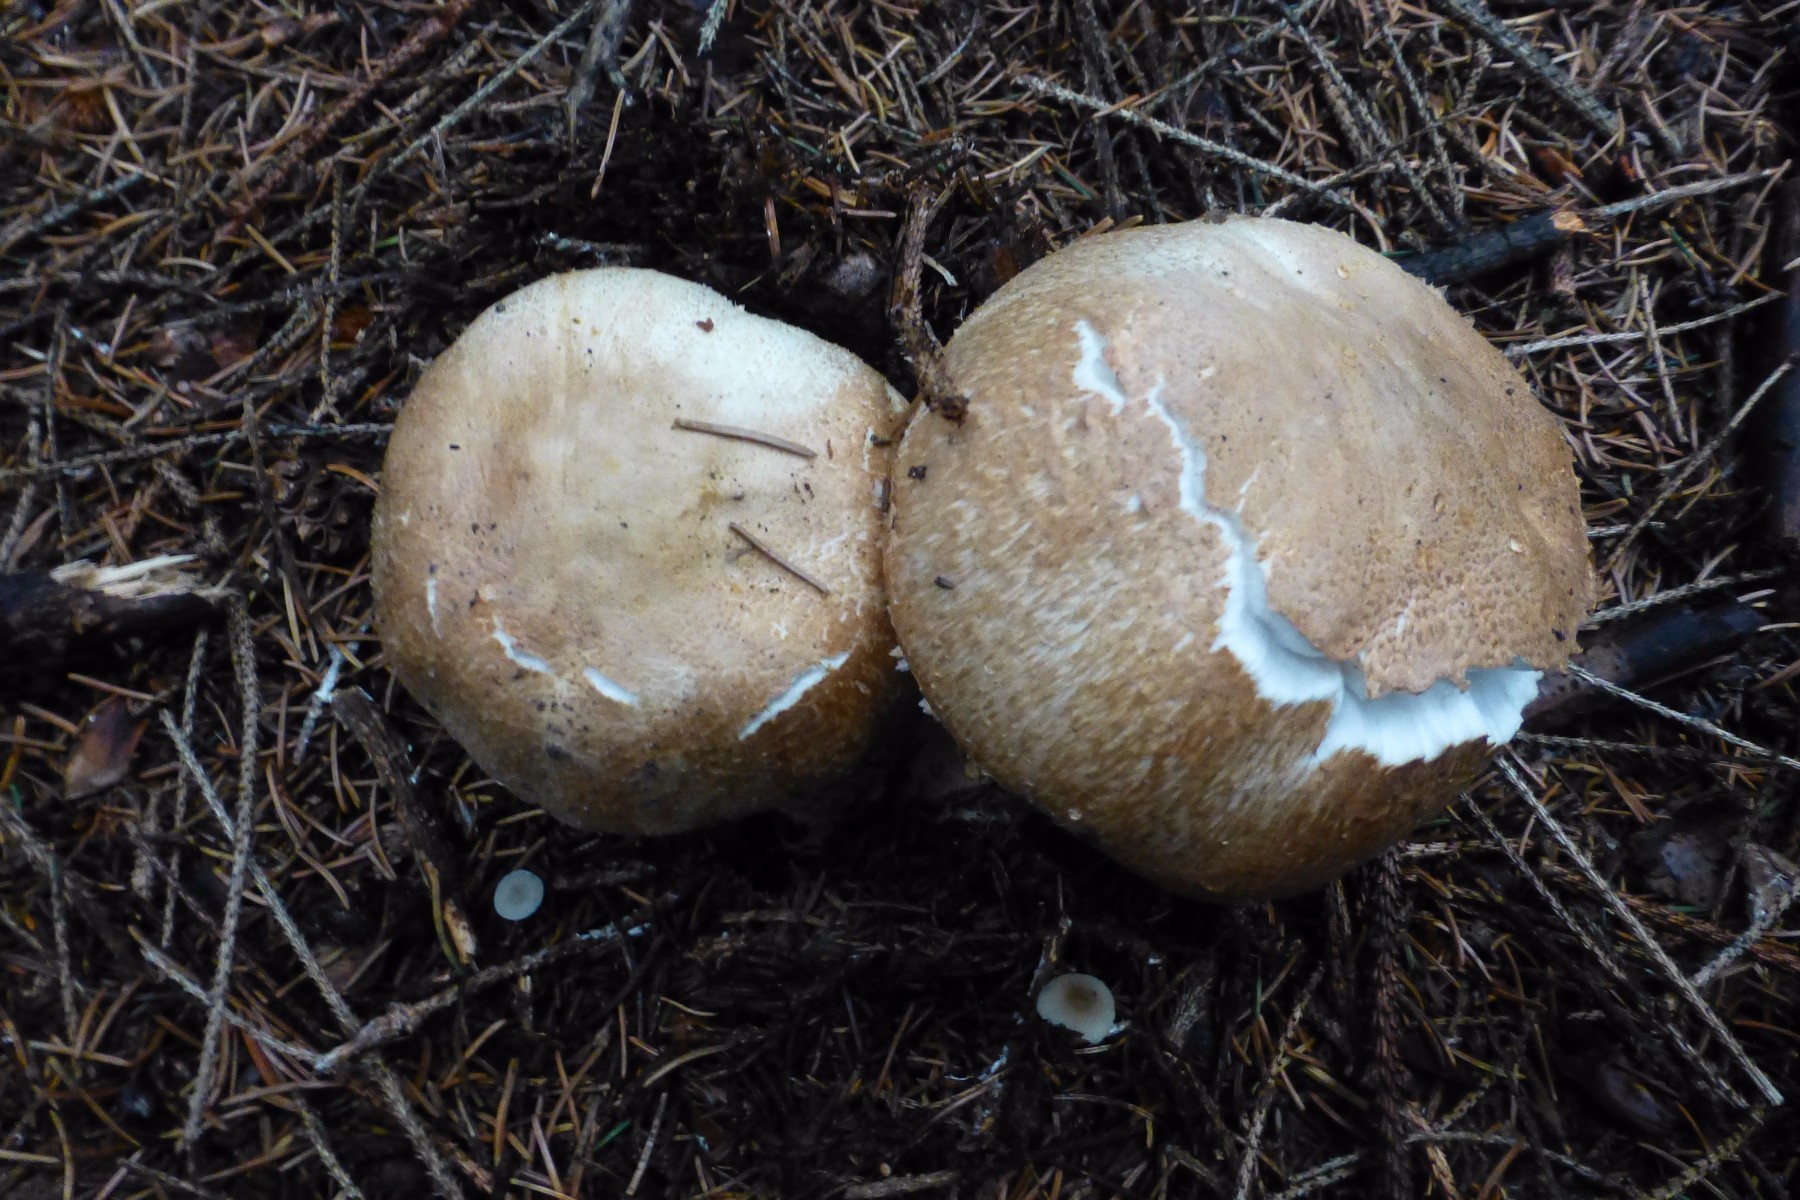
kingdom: Fungi
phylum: Basidiomycota
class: Agaricomycetes
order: Agaricales
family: Agaricaceae
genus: Agaricus
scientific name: Agaricus augustus
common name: prægtig champignon
